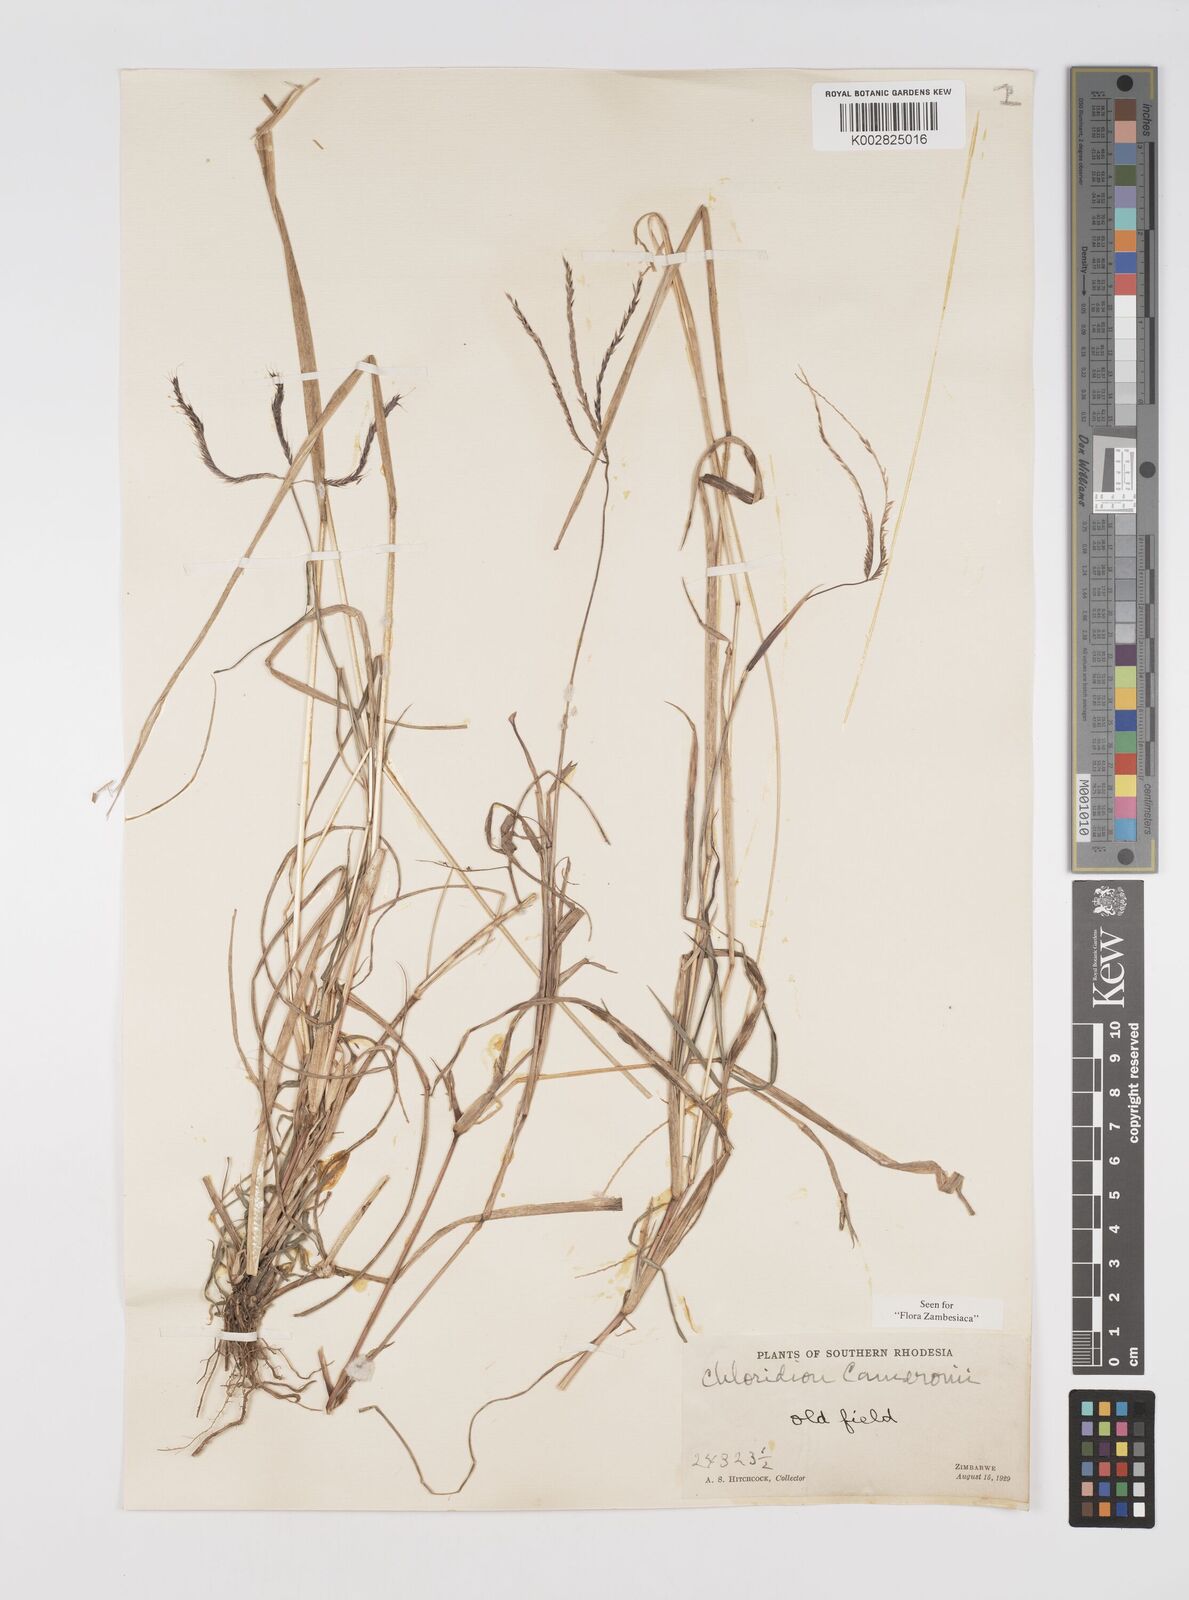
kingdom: Plantae
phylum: Tracheophyta
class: Liliopsida
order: Poales
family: Poaceae
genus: Stereochlaena
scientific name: Stereochlaena cameronii
